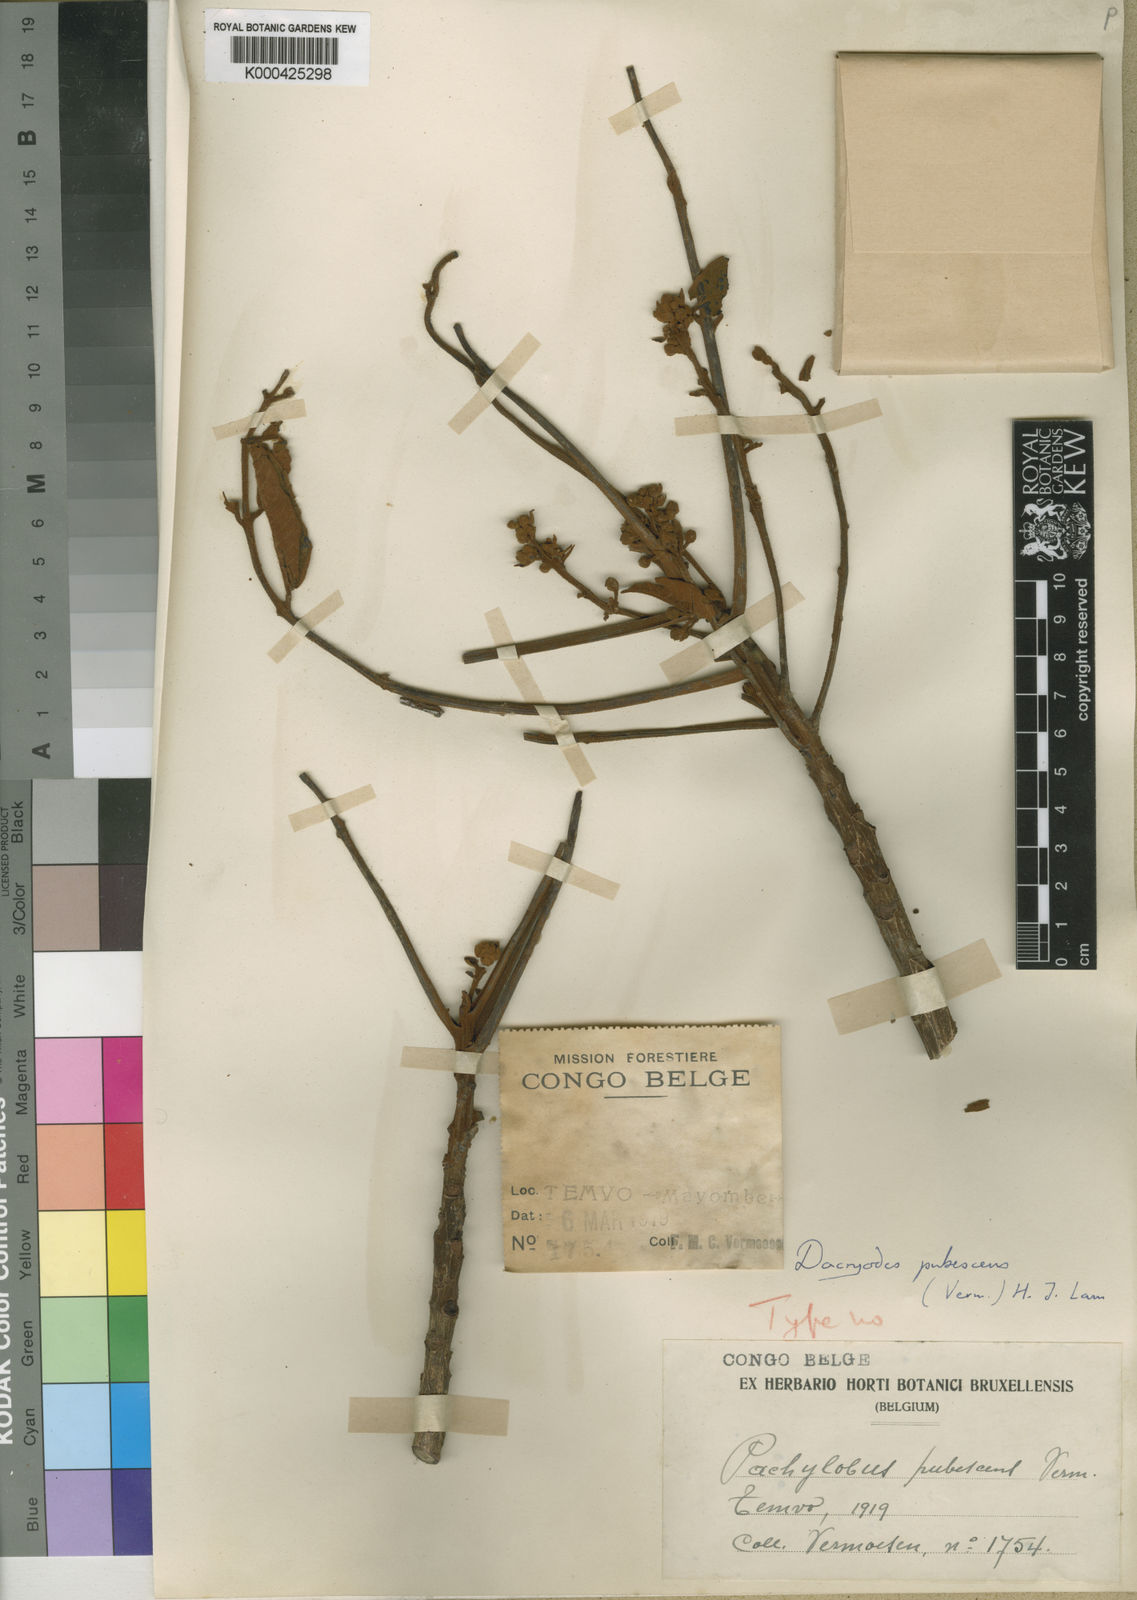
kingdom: Plantae
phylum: Tracheophyta
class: Magnoliopsida
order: Sapindales
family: Burseraceae
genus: Pachylobus
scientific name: Pachylobus pubescens
